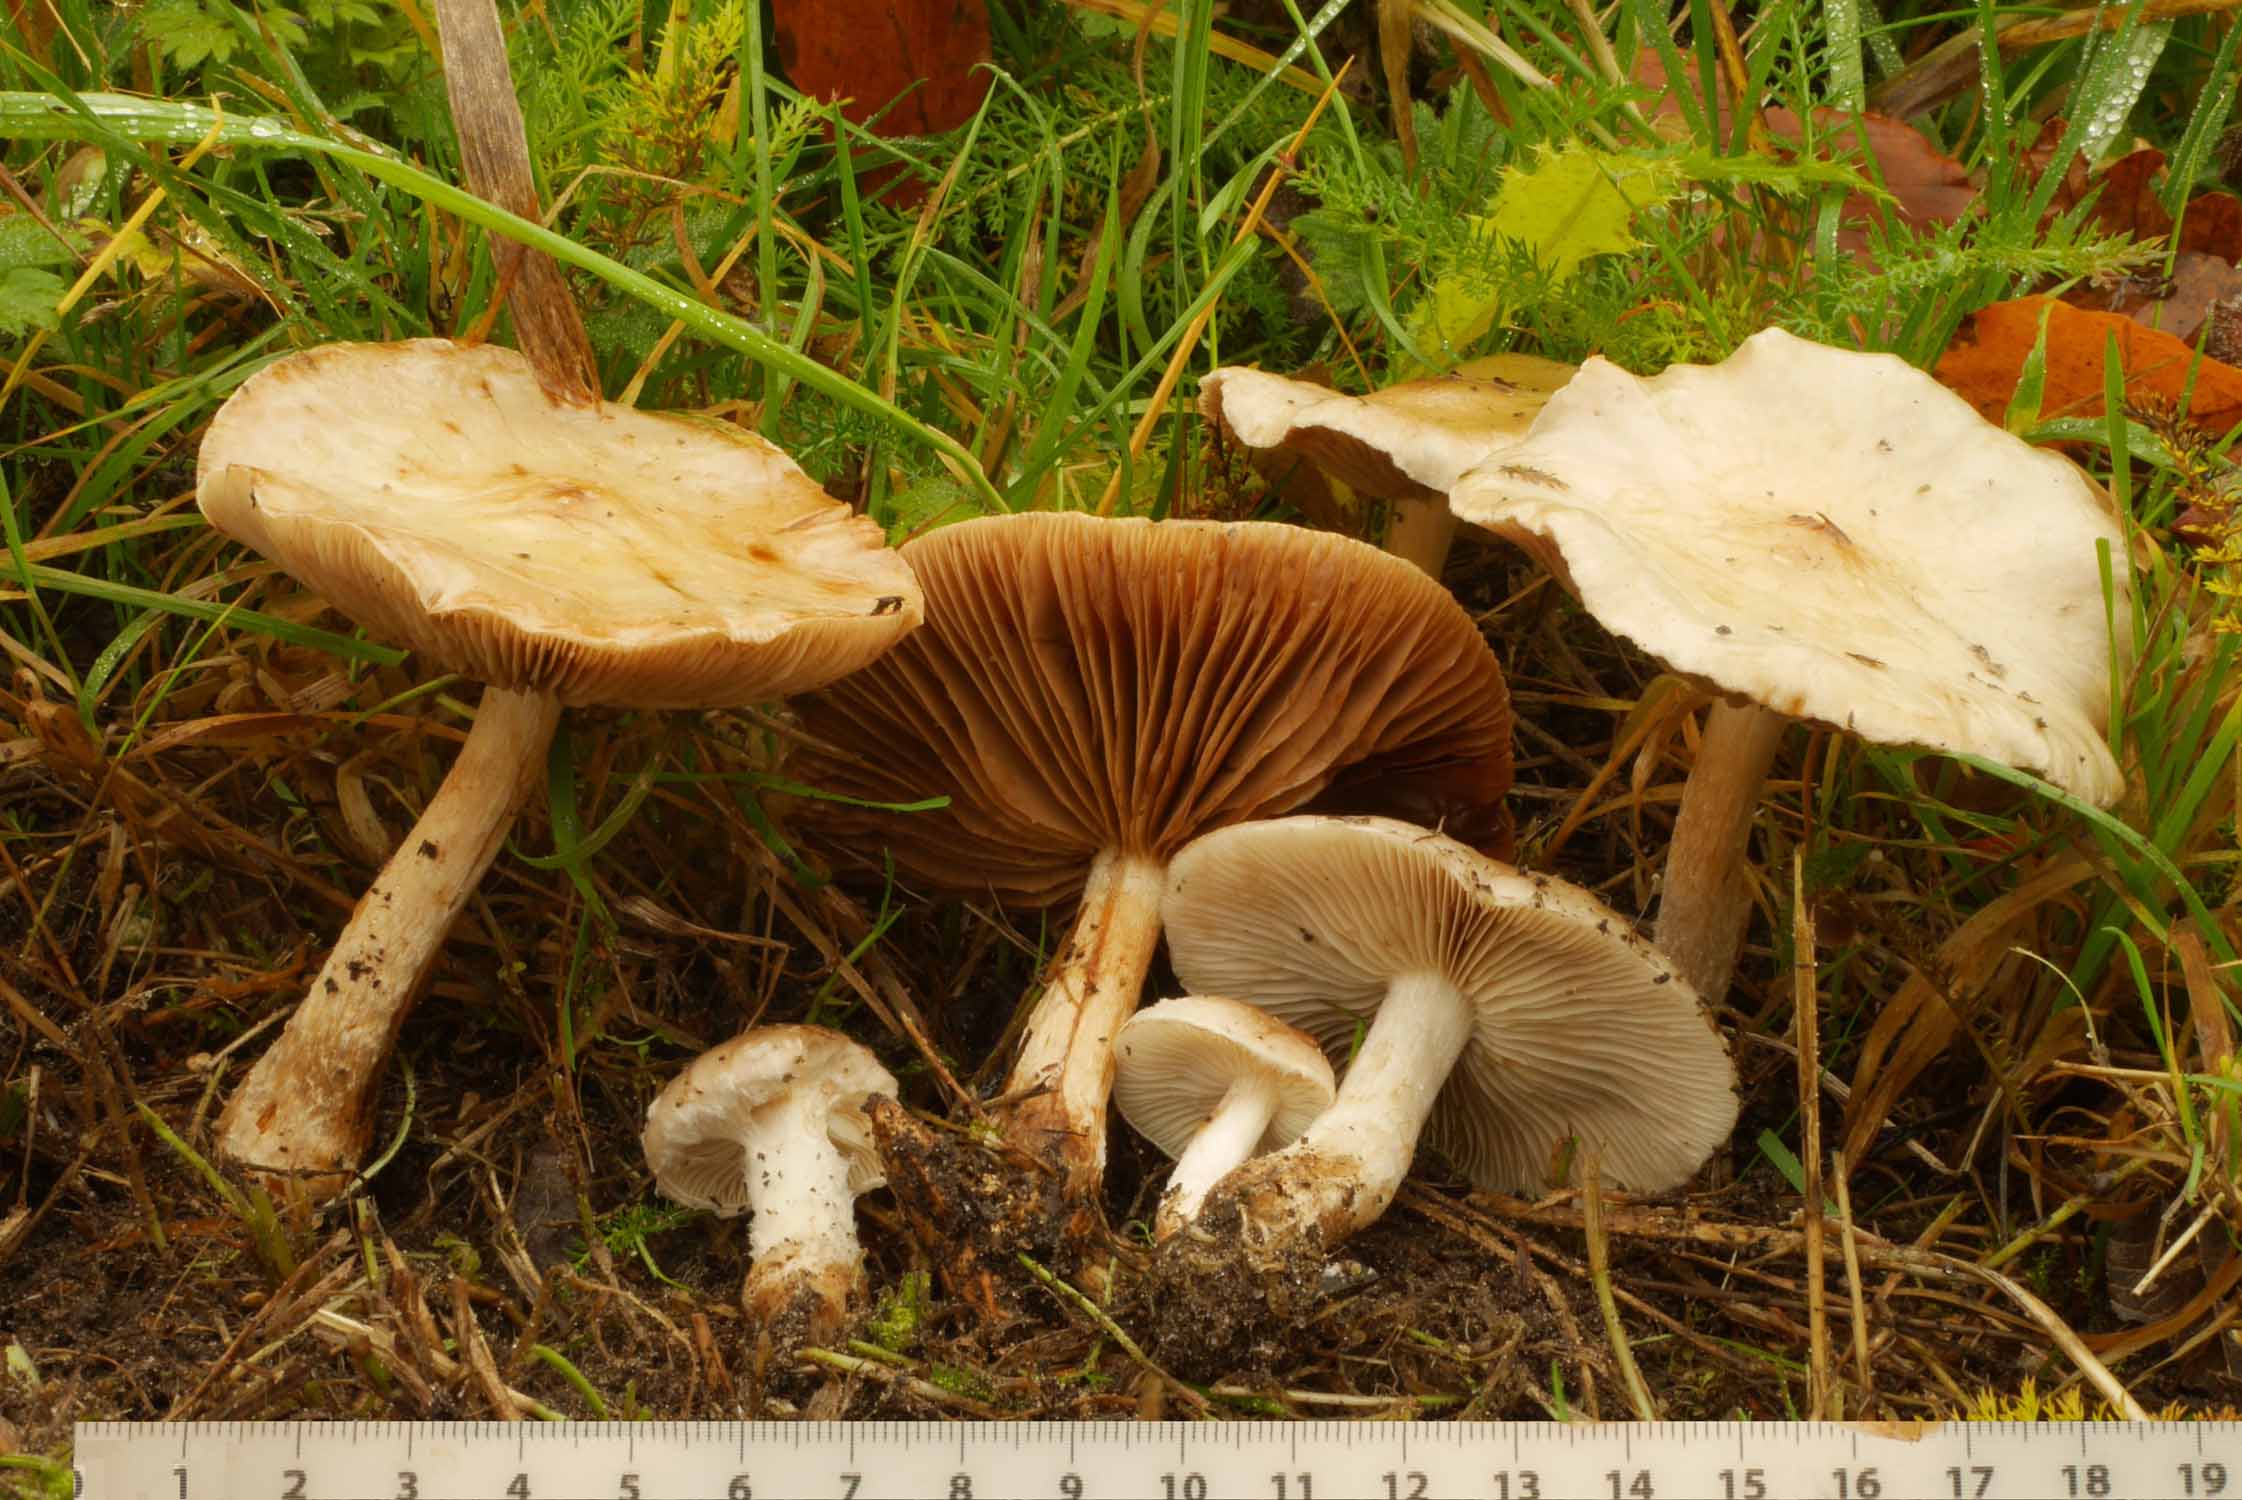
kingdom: Fungi
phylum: Basidiomycota
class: Agaricomycetes
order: Agaricales
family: Strophariaceae
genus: Pholiota
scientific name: Pholiota lenta
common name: løv-skælhat
